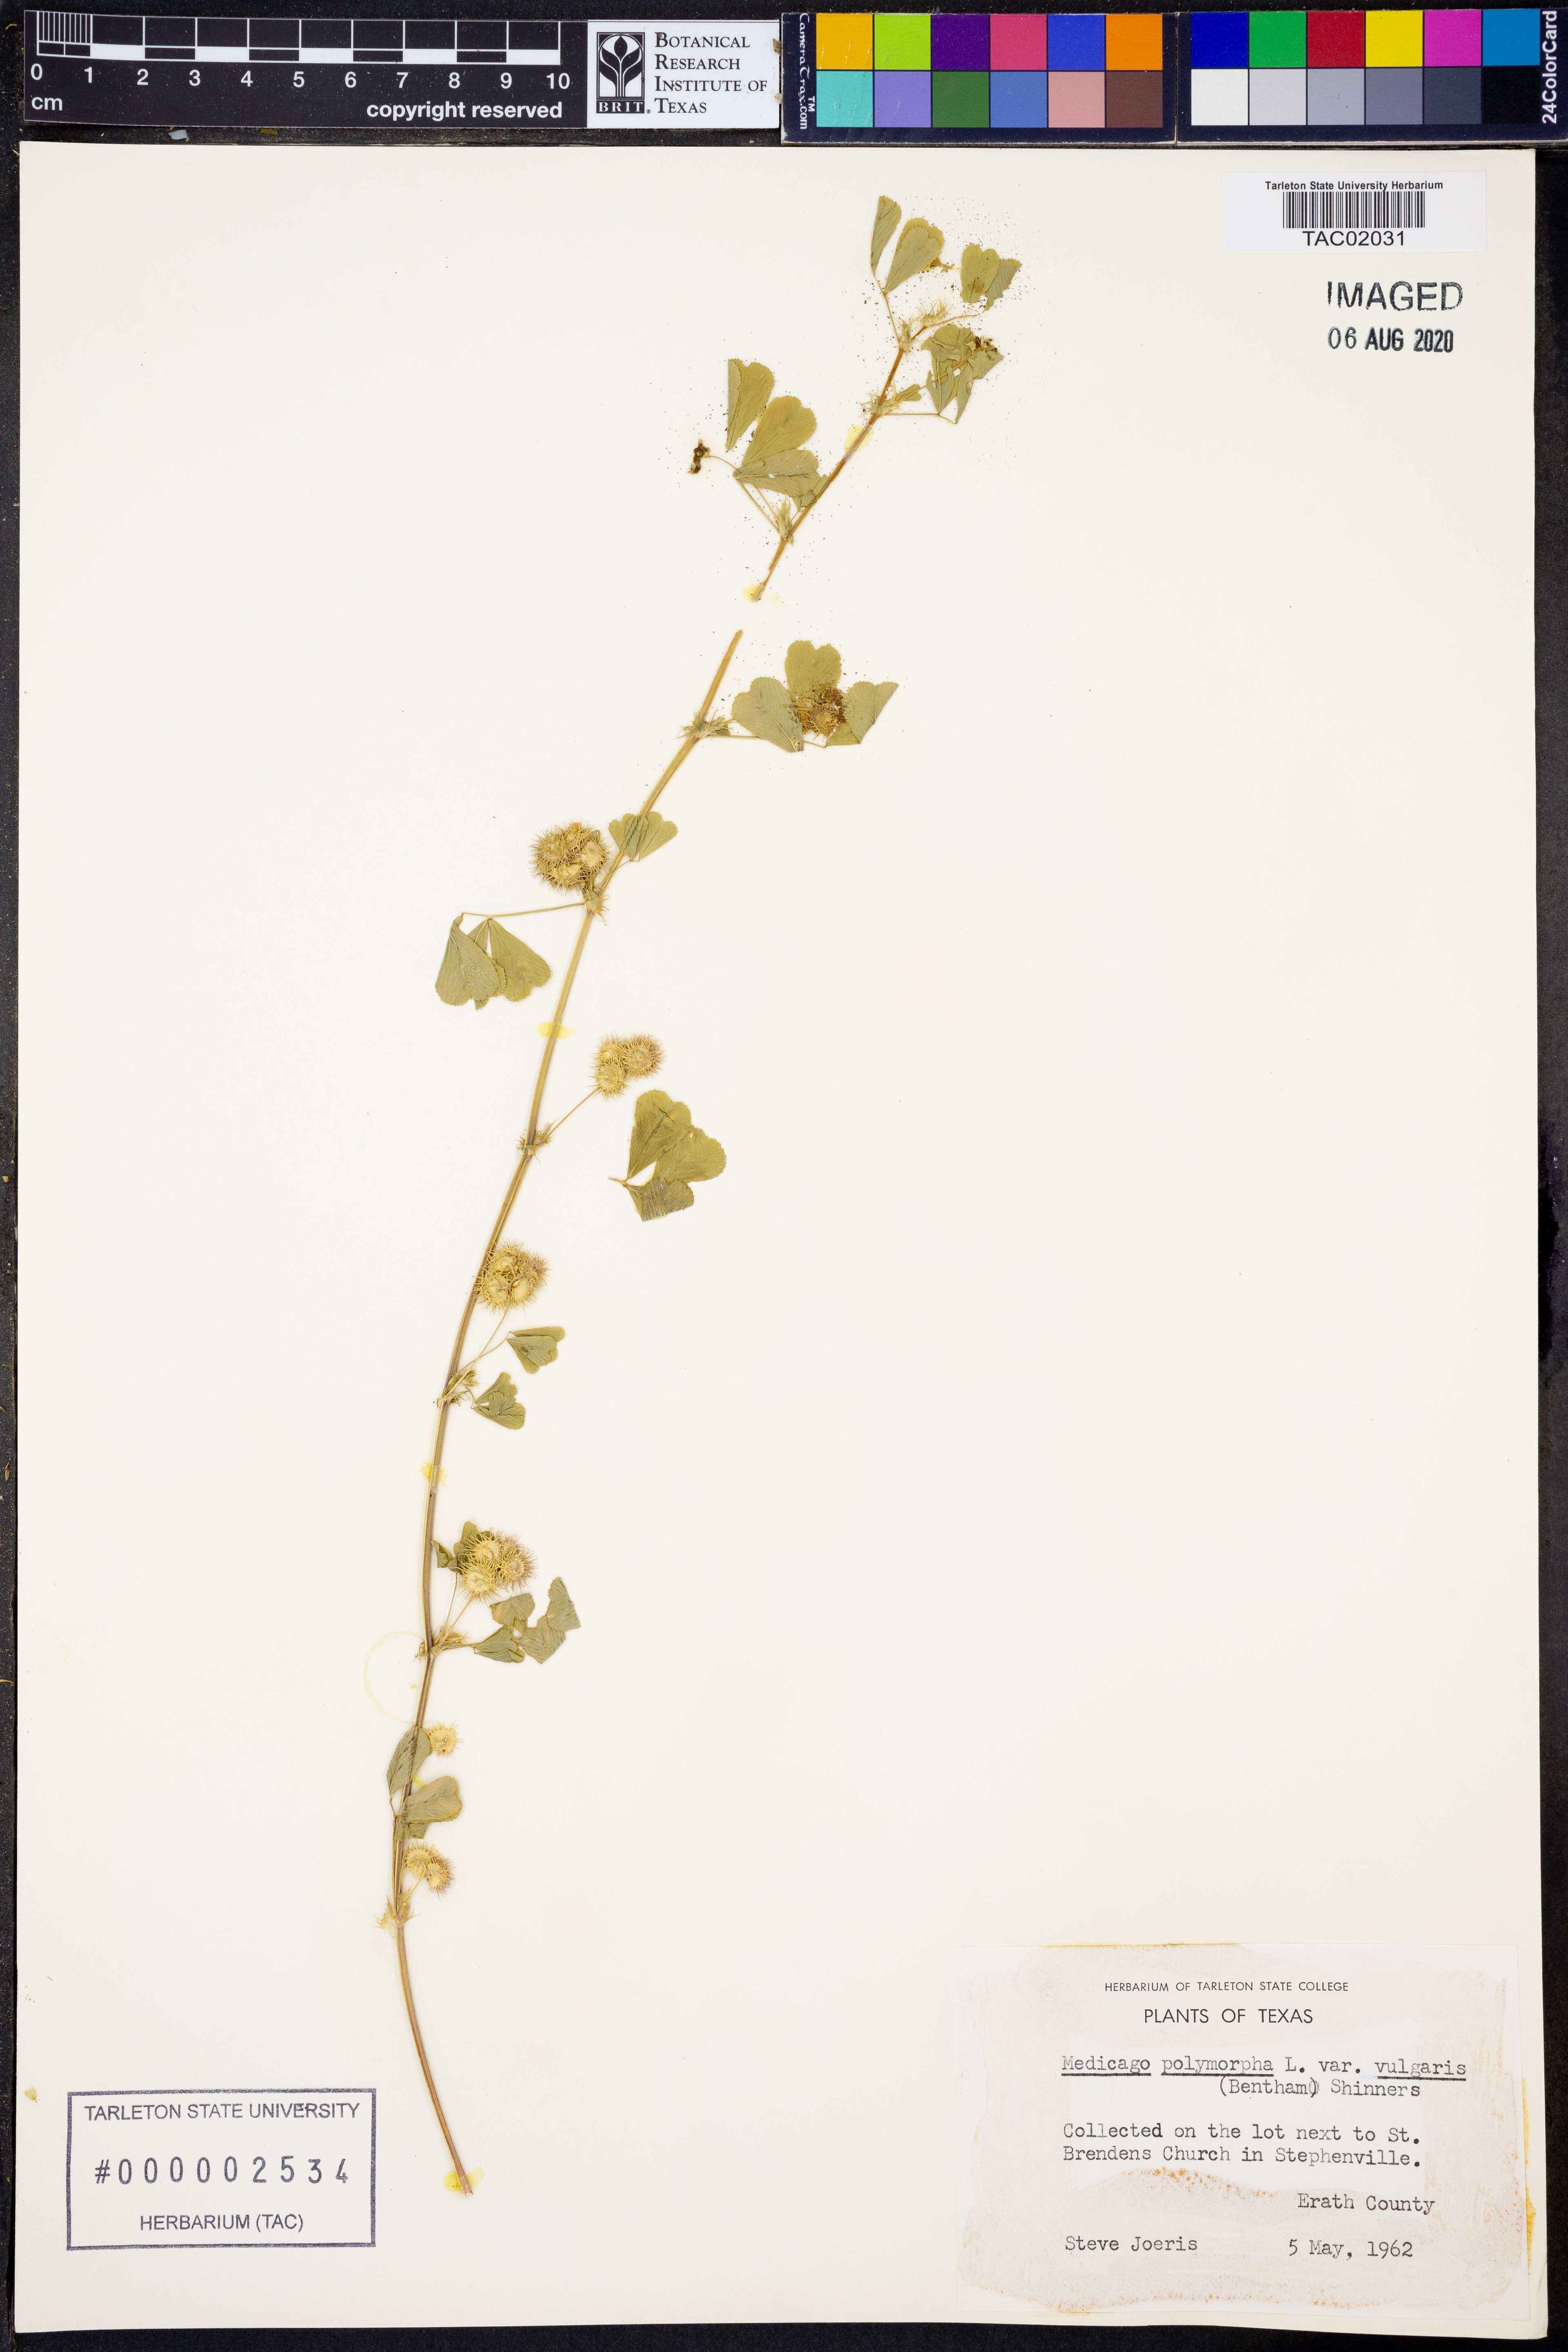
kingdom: Plantae
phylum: Tracheophyta
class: Magnoliopsida
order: Fabales
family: Fabaceae
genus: Medicago
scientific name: Medicago polymorpha
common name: Burclover
